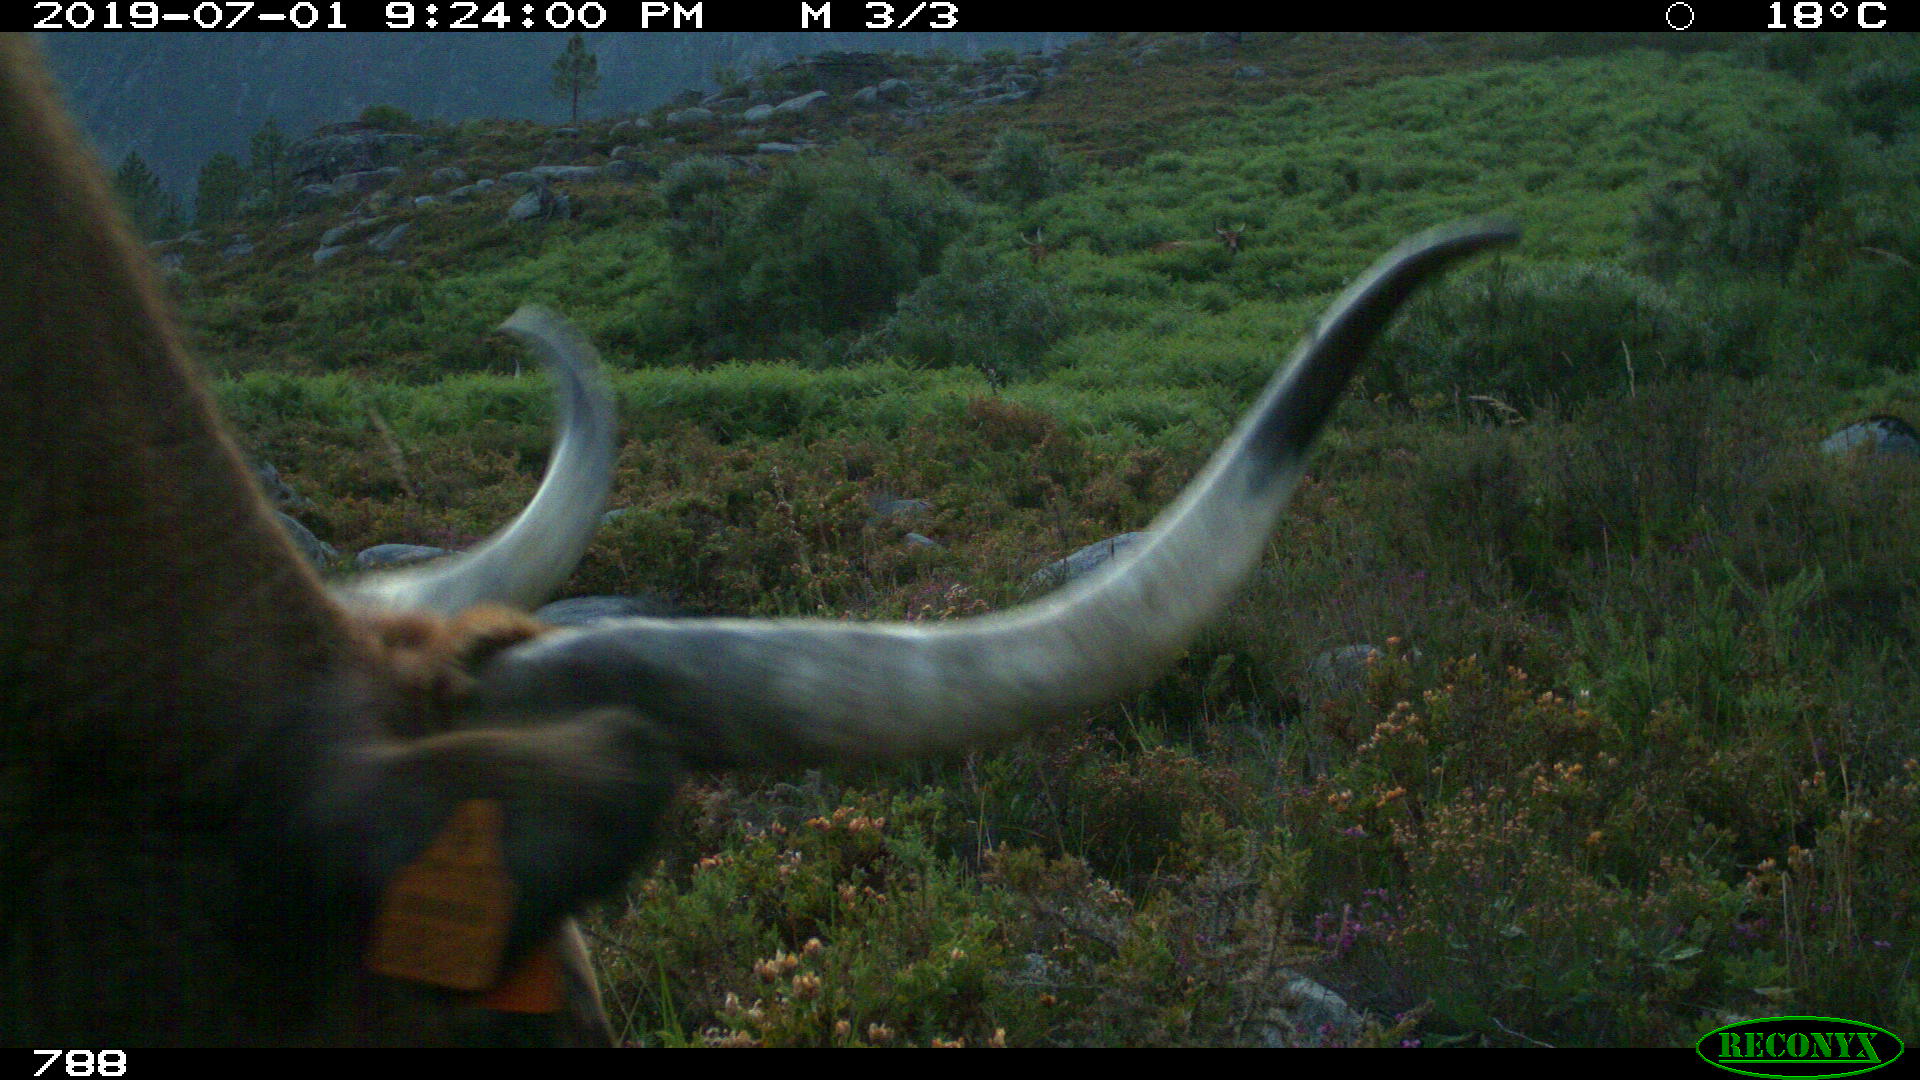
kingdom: Animalia
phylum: Chordata
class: Mammalia
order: Artiodactyla
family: Bovidae
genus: Bos
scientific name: Bos taurus
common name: Domesticated cattle
